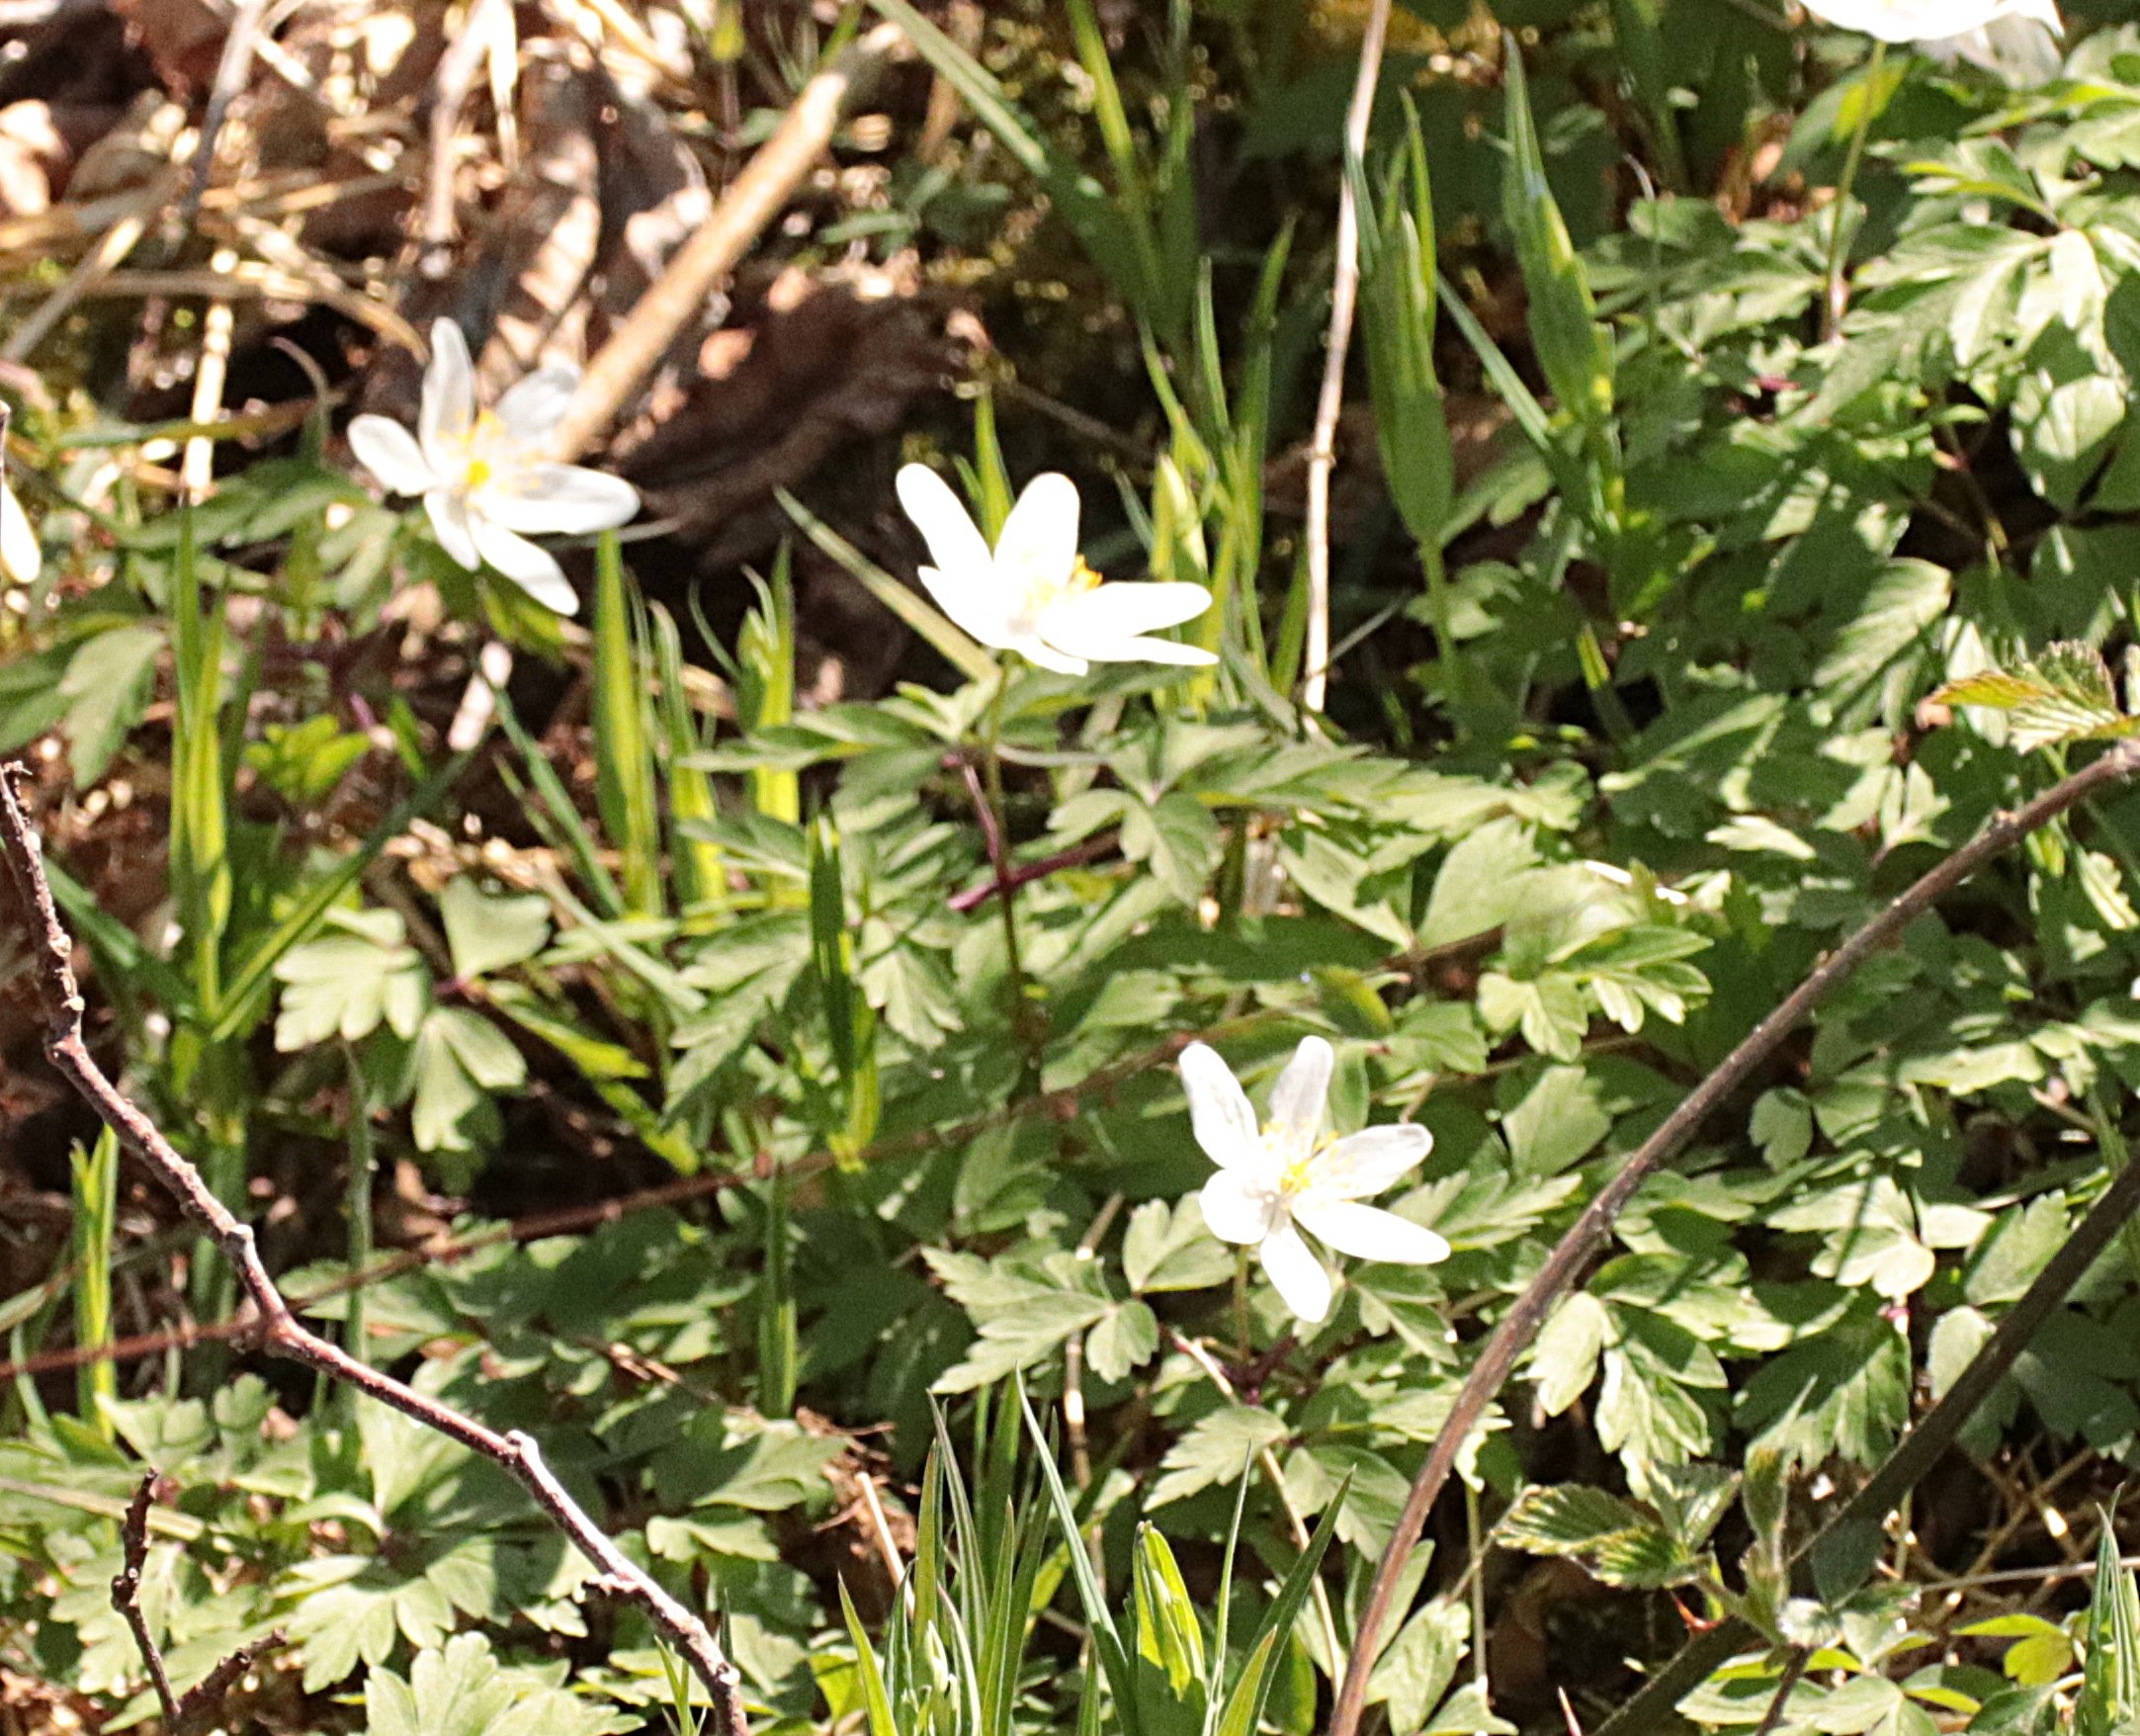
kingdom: Plantae
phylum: Tracheophyta
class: Magnoliopsida
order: Ranunculales
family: Ranunculaceae
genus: Anemone
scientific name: Anemone nemorosa
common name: Hvid anemone
